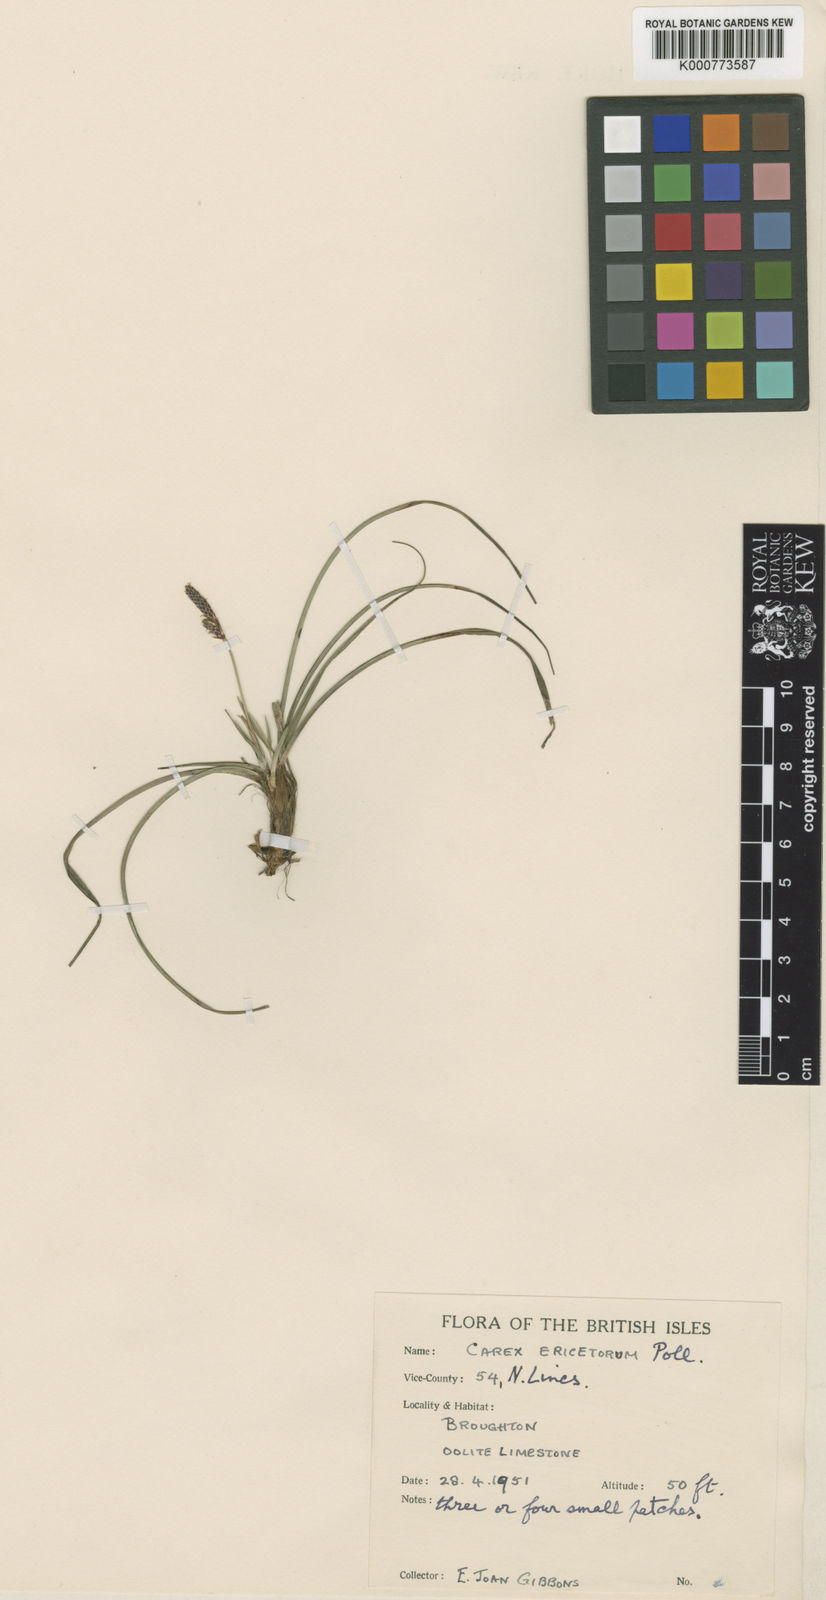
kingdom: Plantae
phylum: Tracheophyta
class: Liliopsida
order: Poales
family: Cyperaceae
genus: Carex
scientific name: Carex ericetorum
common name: Rare spring-sedge
